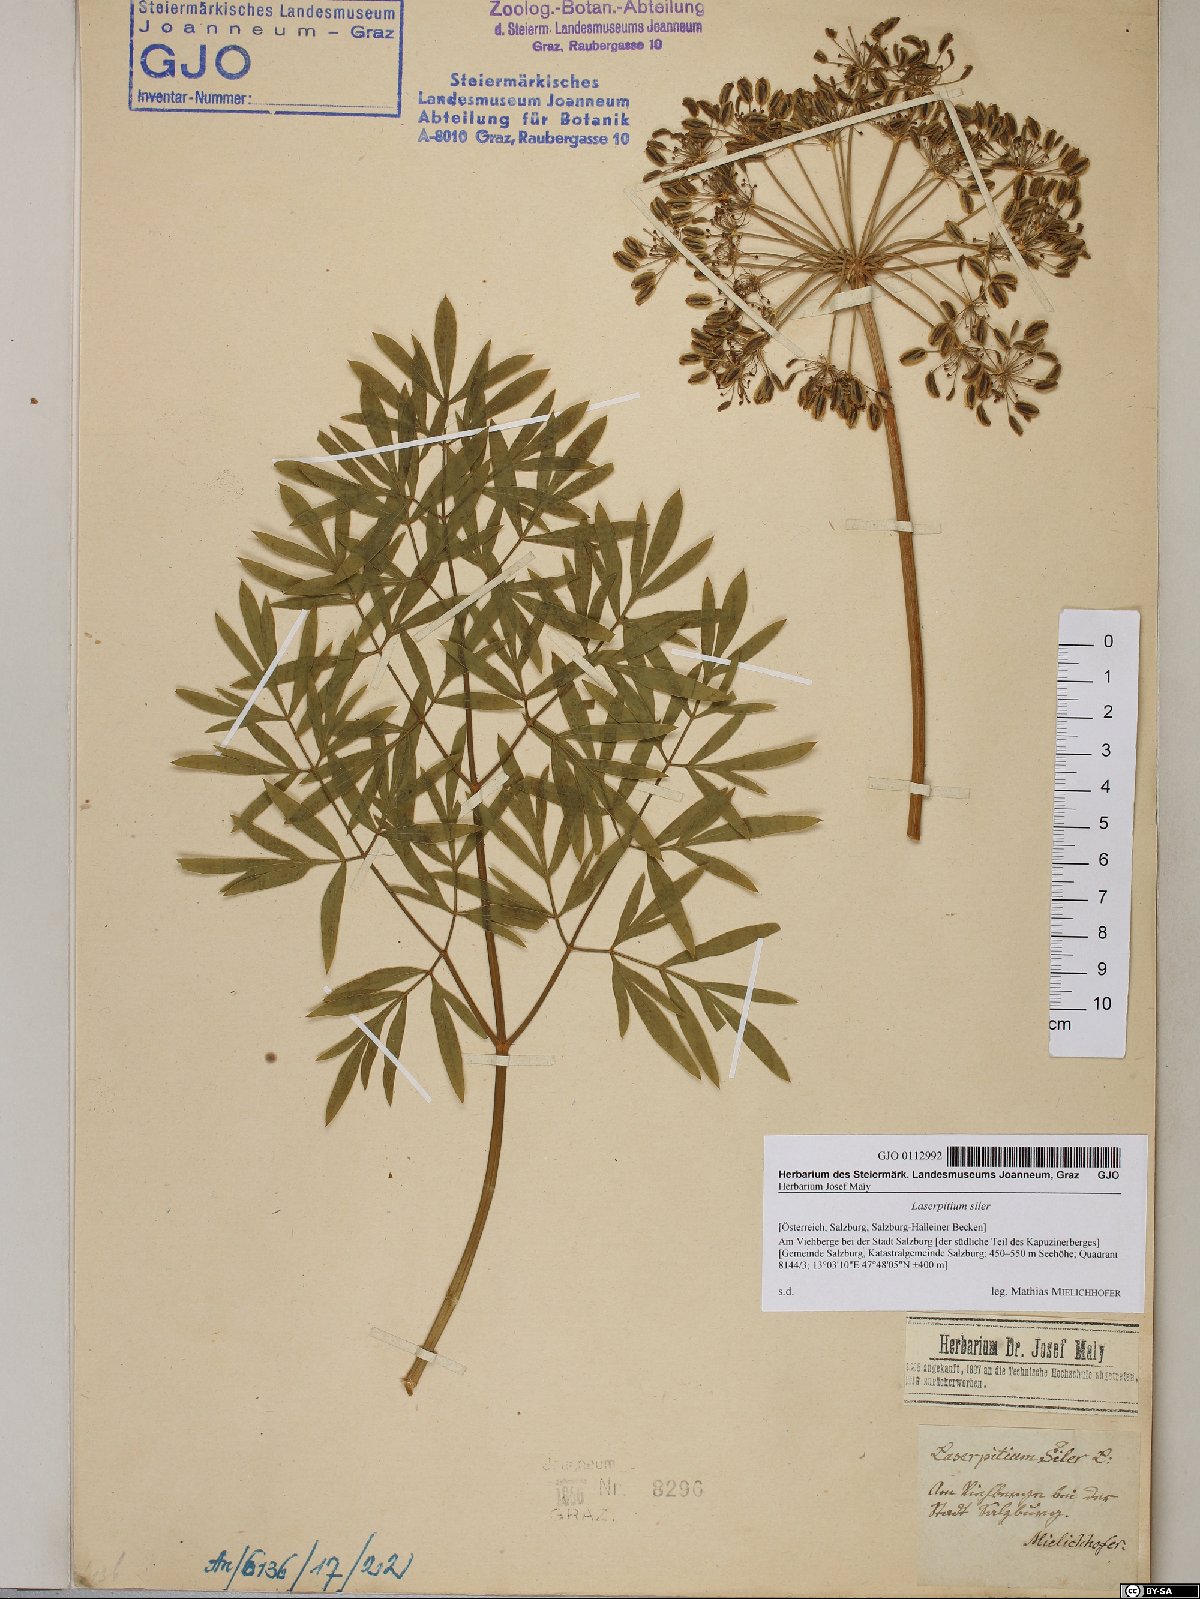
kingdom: Plantae
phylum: Tracheophyta
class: Magnoliopsida
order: Apiales
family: Apiaceae
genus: Siler
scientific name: Siler montanum
